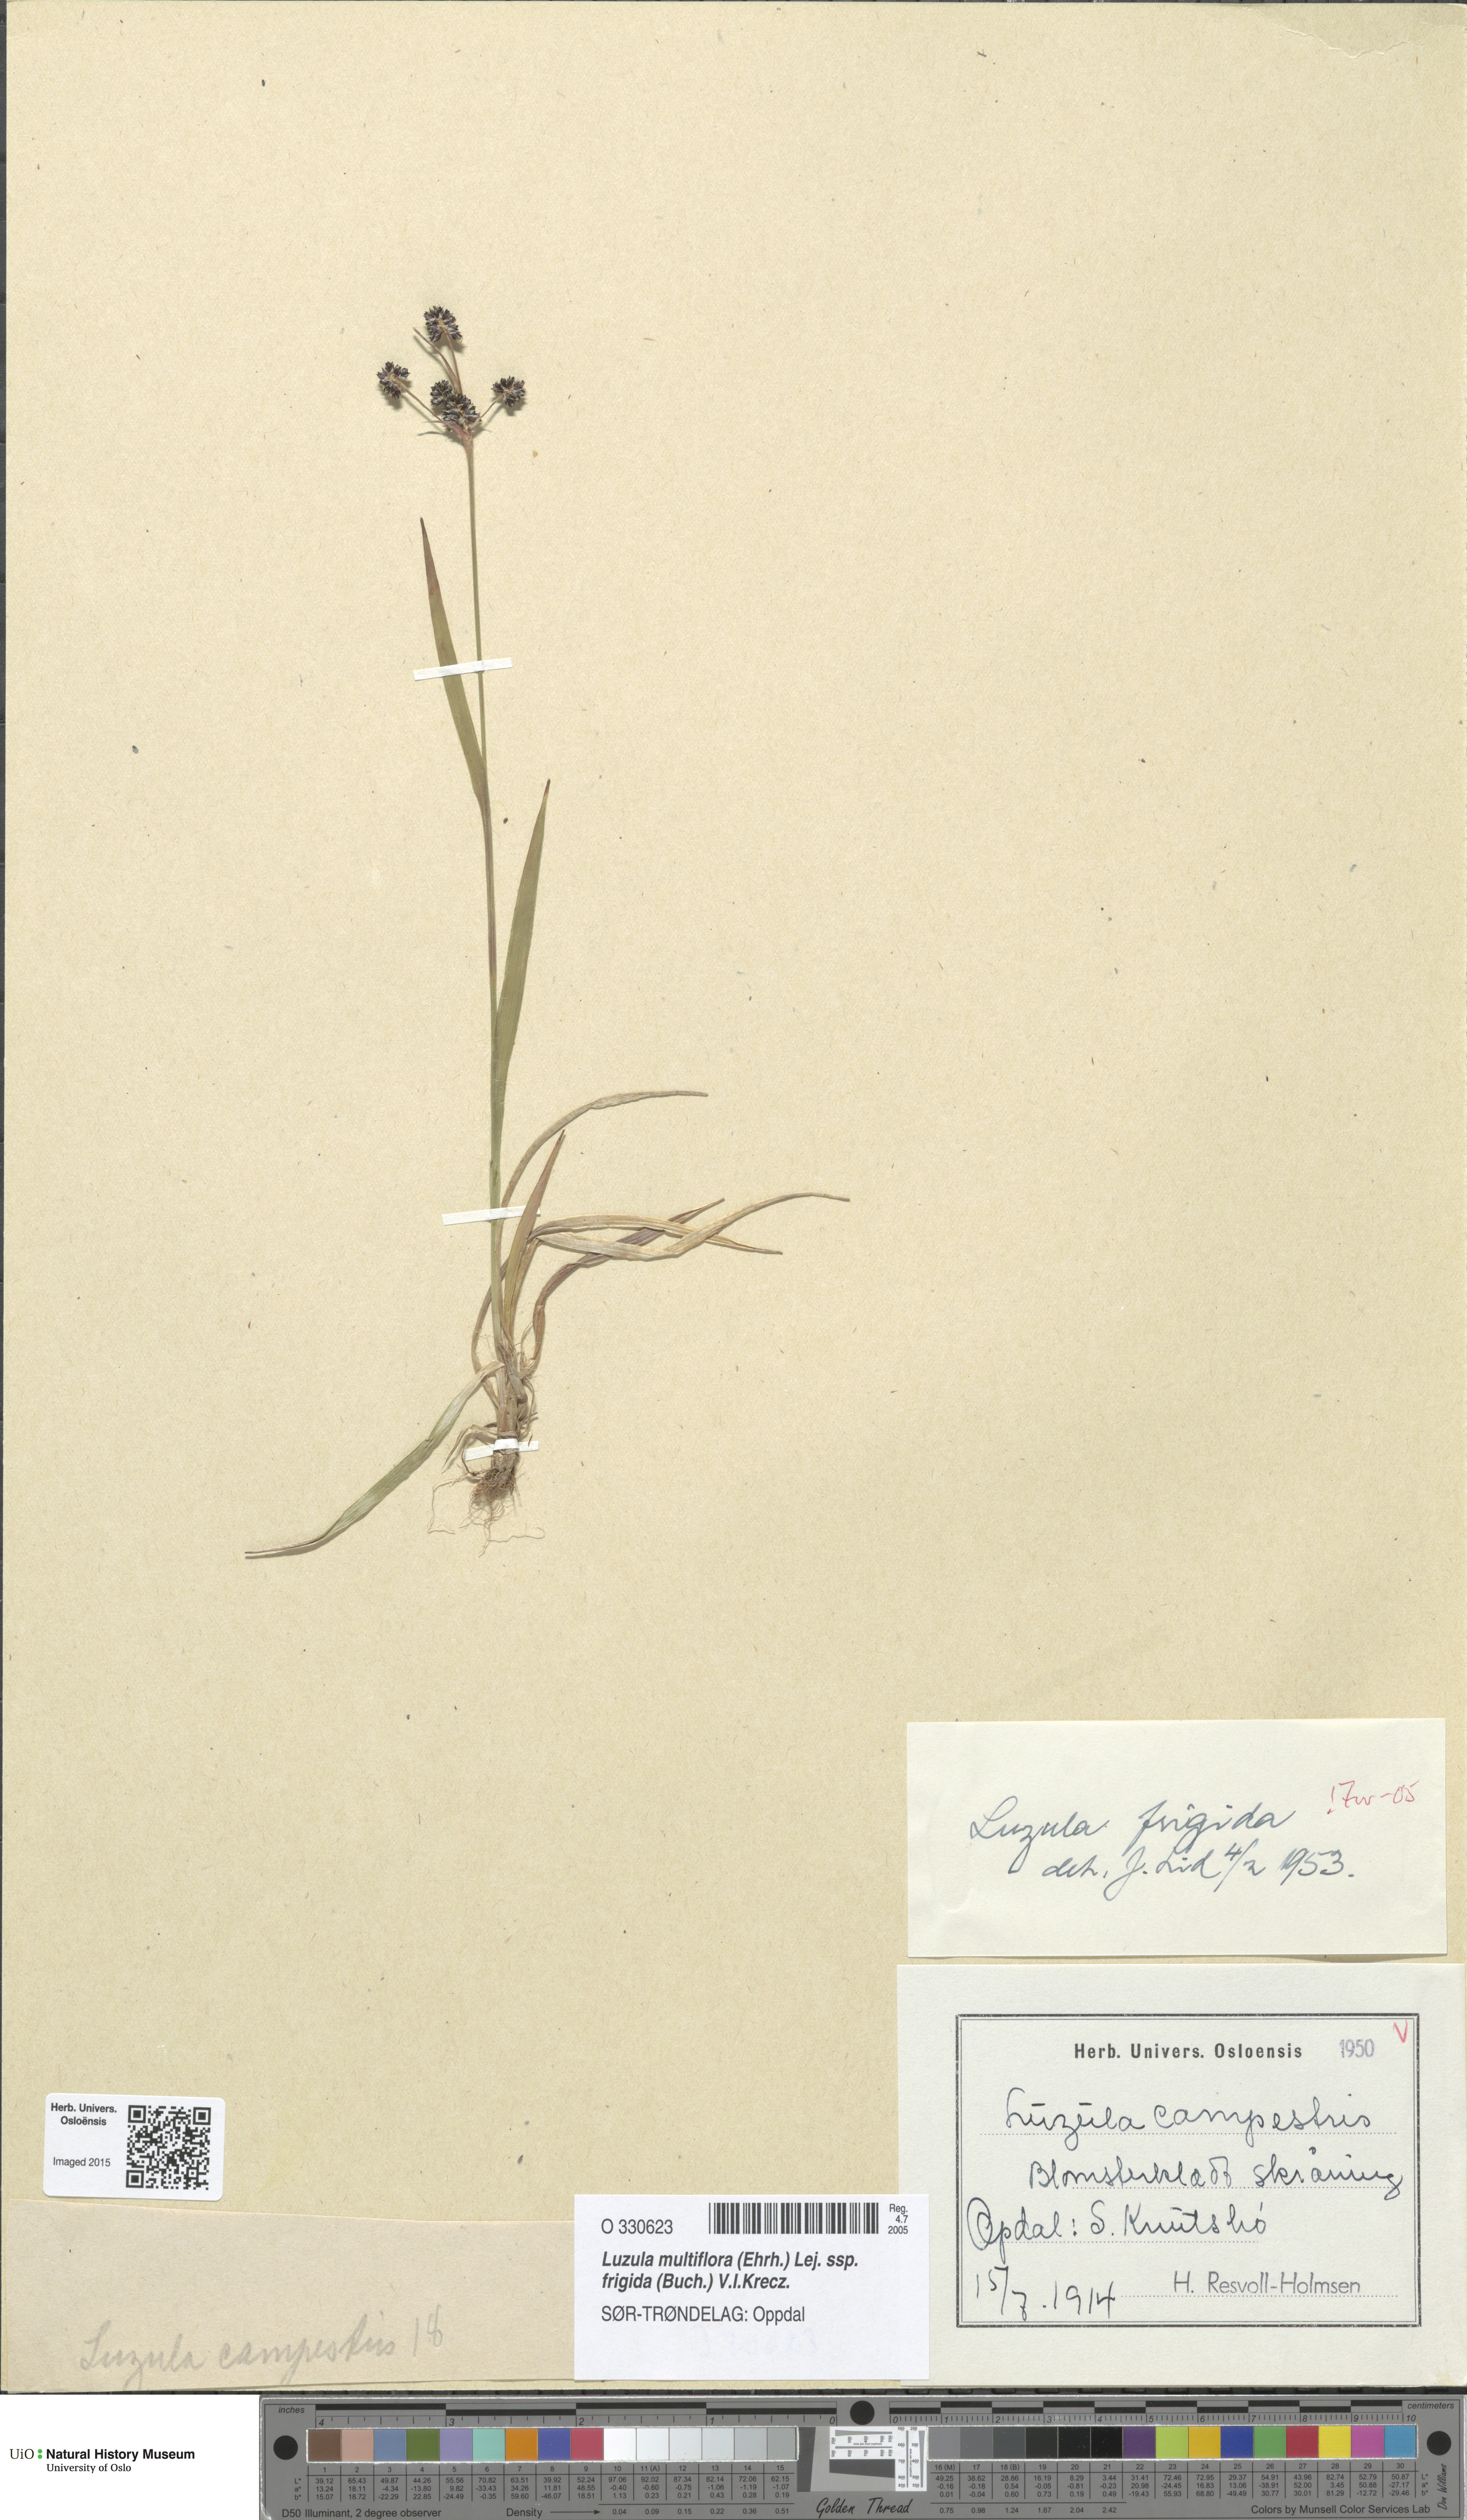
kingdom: Plantae
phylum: Tracheophyta
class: Liliopsida
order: Poales
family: Juncaceae
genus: Luzula
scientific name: Luzula multiflora
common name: Heath wood-rush
